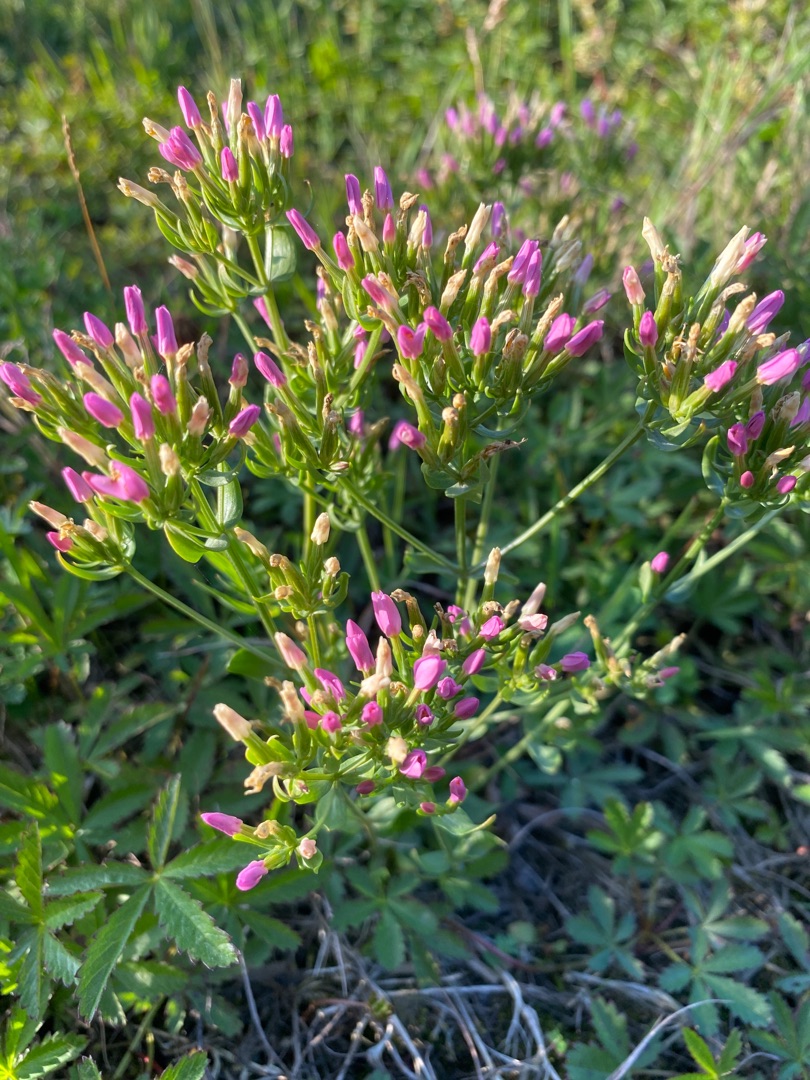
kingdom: Plantae
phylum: Tracheophyta
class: Magnoliopsida
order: Gentianales
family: Gentianaceae
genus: Centaurium
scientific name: Centaurium erythraea
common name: Mark-tusindgylden
